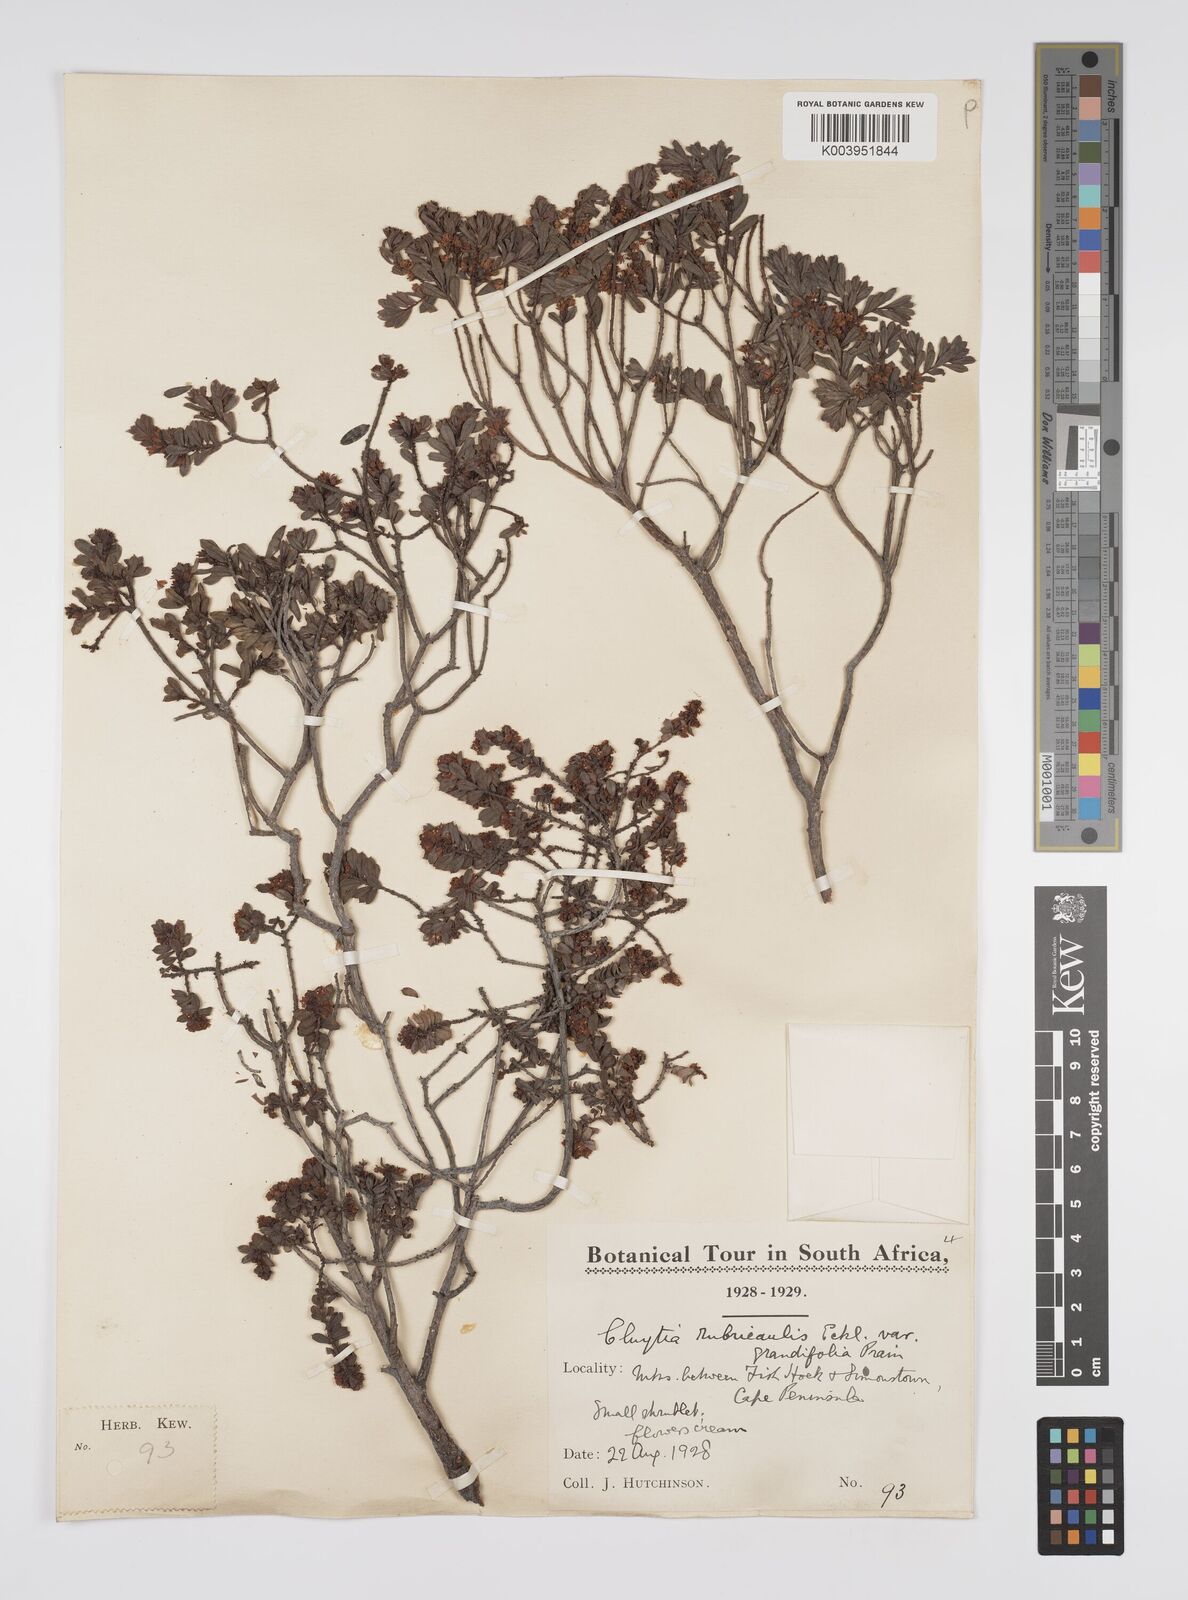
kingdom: Plantae
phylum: Tracheophyta
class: Magnoliopsida
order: Malpighiales
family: Peraceae
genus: Clutia
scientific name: Clutia rubricaulis
